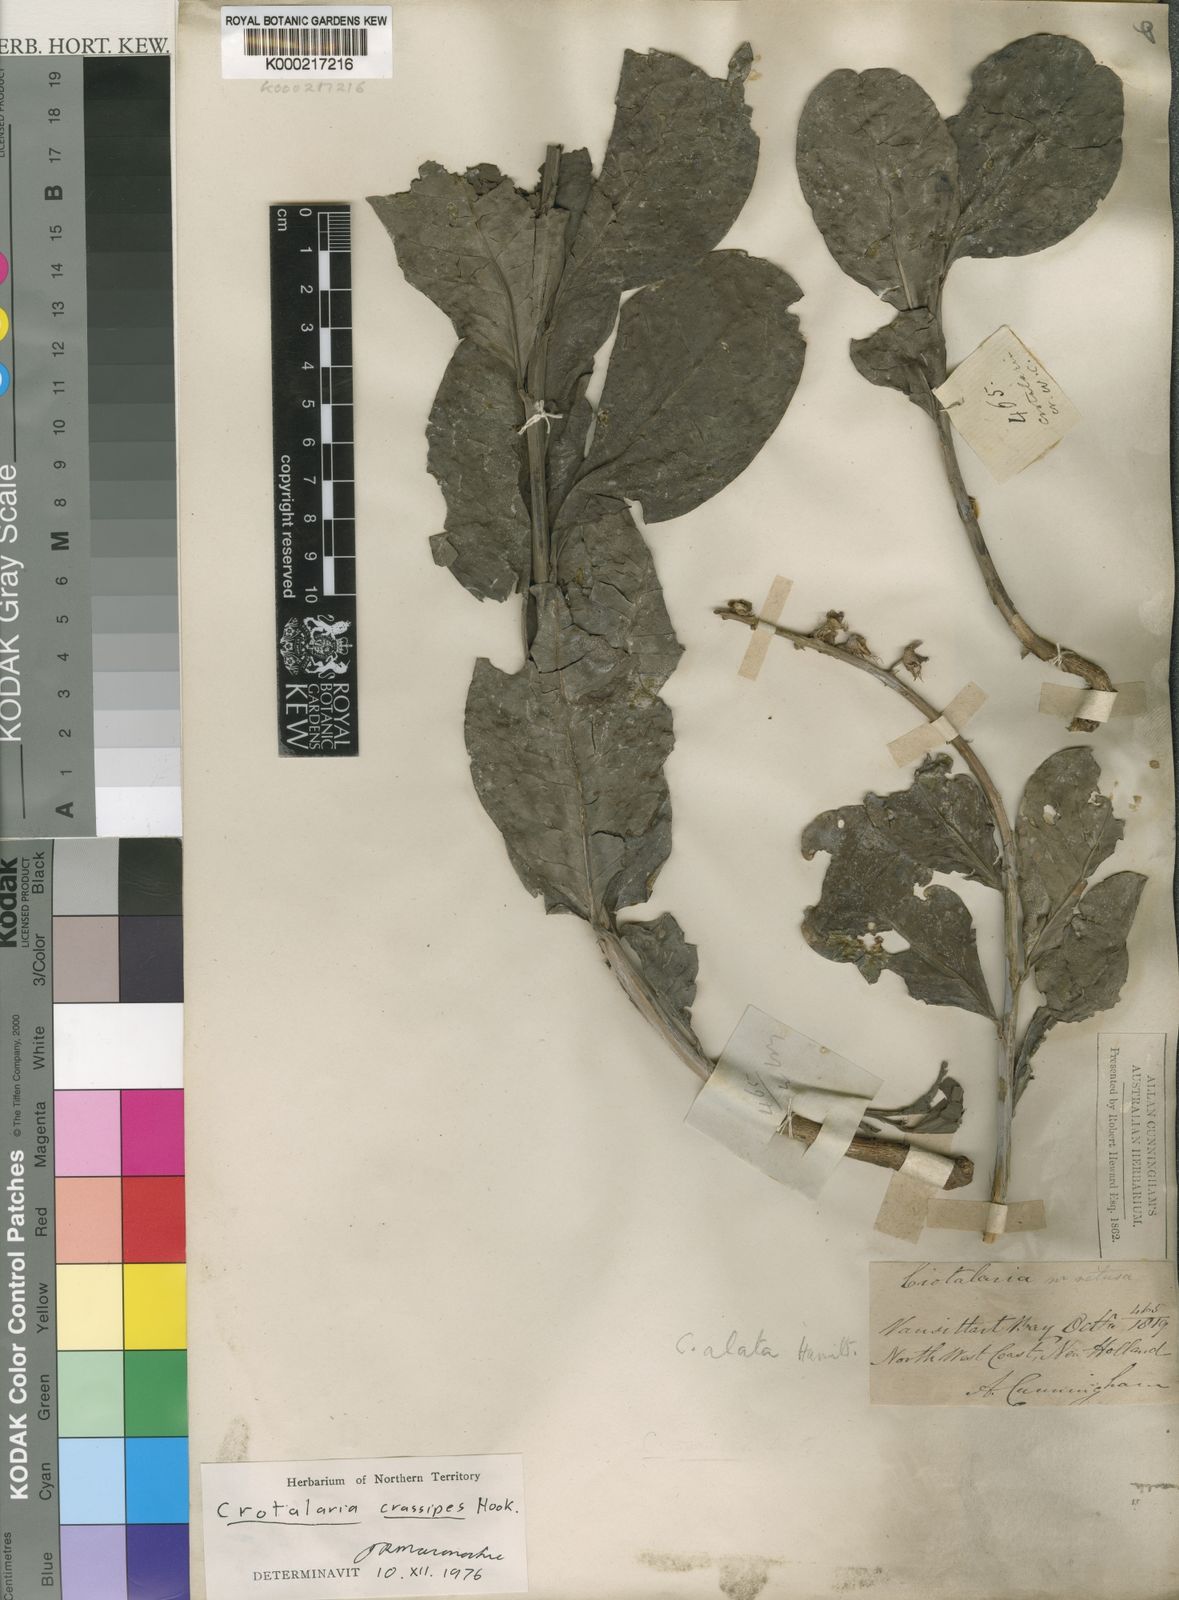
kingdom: Plantae
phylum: Tracheophyta
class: Magnoliopsida
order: Fabales
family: Fabaceae
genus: Crotalaria
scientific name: Crotalaria novae-hollandiae
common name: New holland rattlepod
